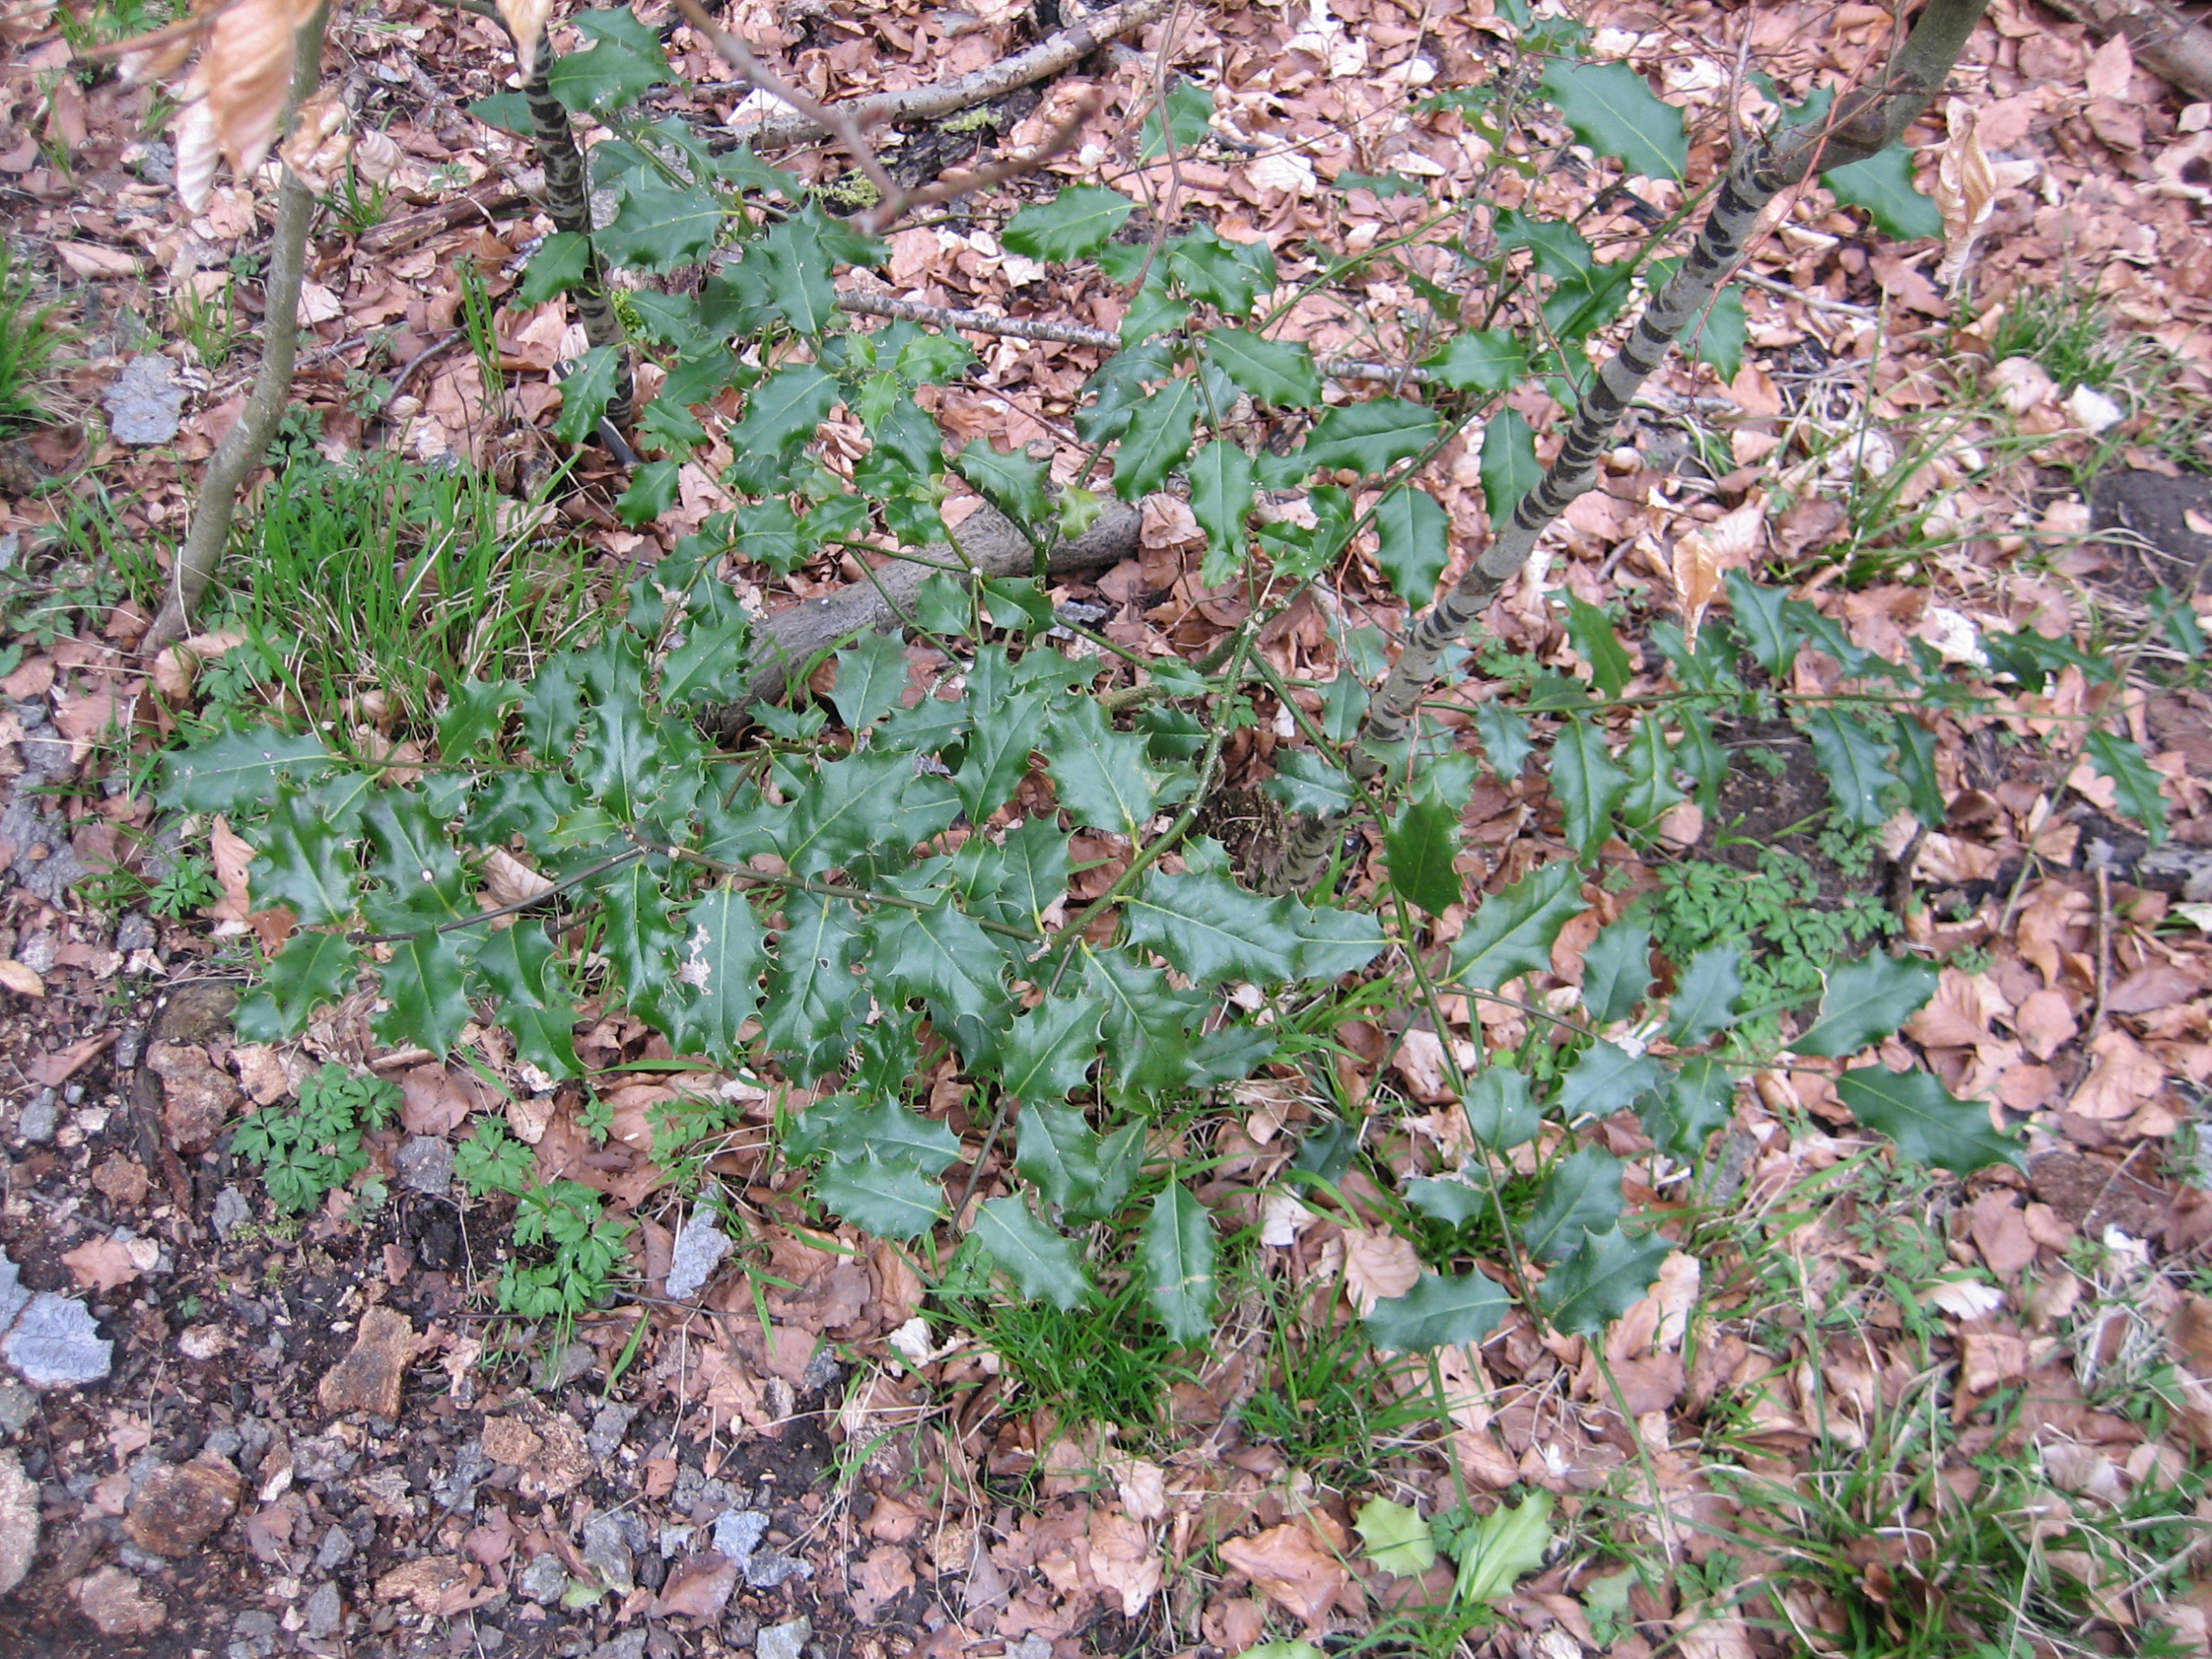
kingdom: Plantae
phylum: Tracheophyta
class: Magnoliopsida
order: Aquifoliales
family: Aquifoliaceae
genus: Ilex
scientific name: Ilex aquifolium
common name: Kristtorn
